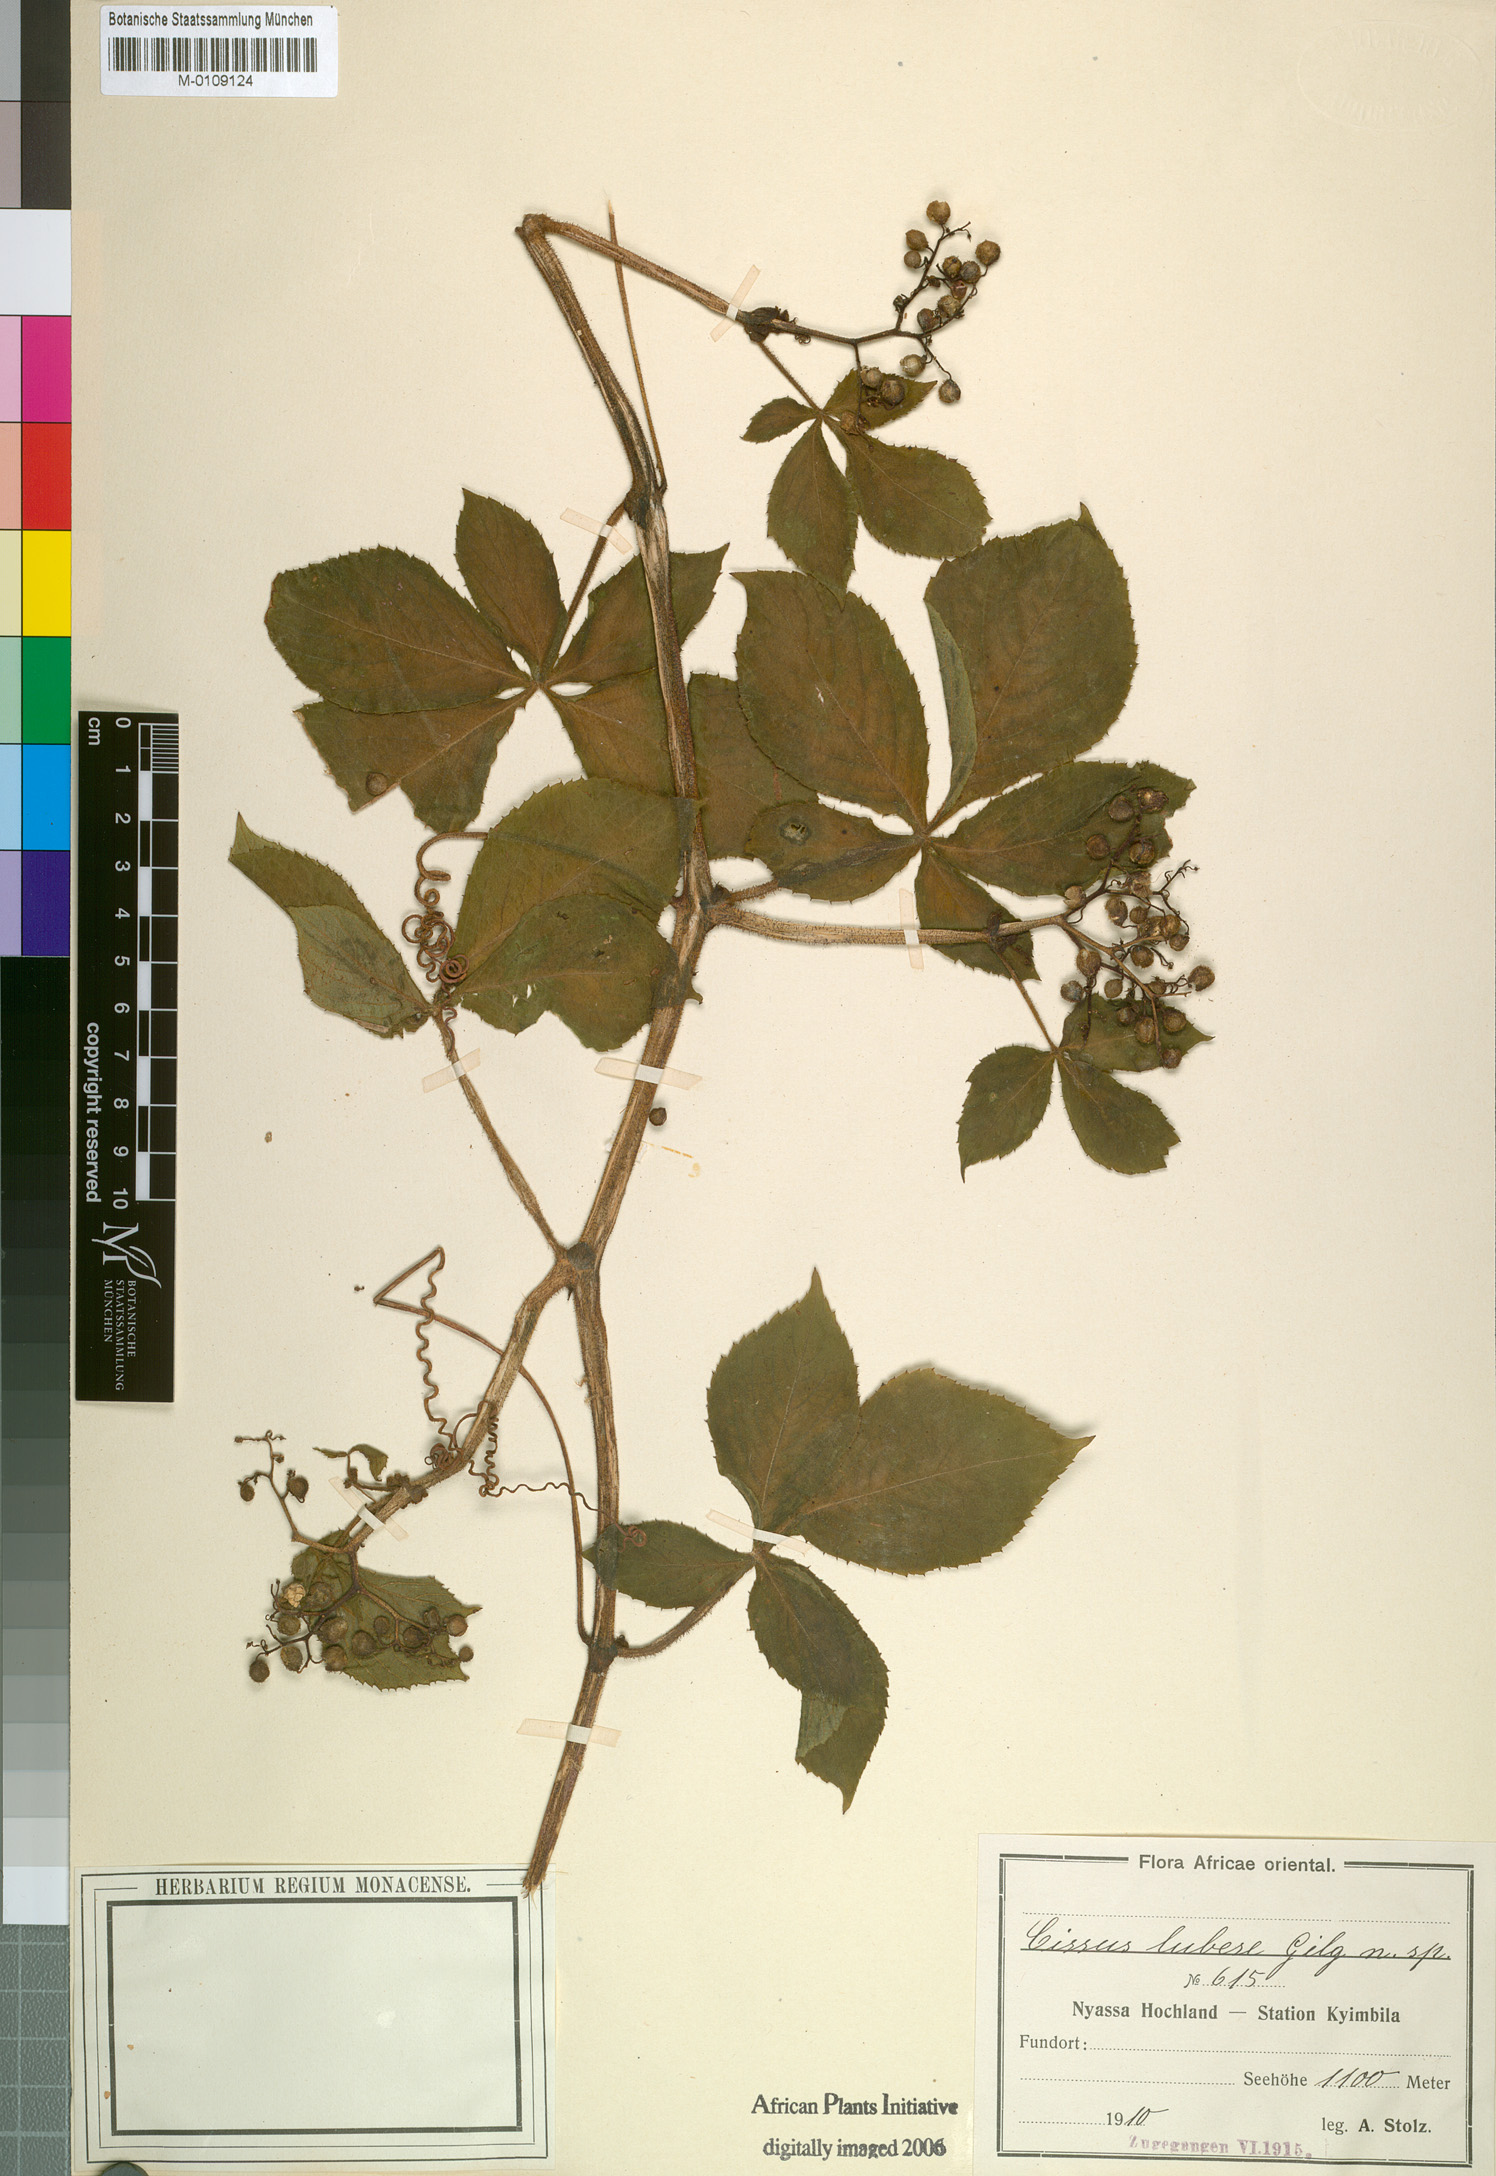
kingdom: Plantae
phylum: Tracheophyta
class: Magnoliopsida
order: Vitales
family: Vitaceae
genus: Cissus
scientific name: Cissus
